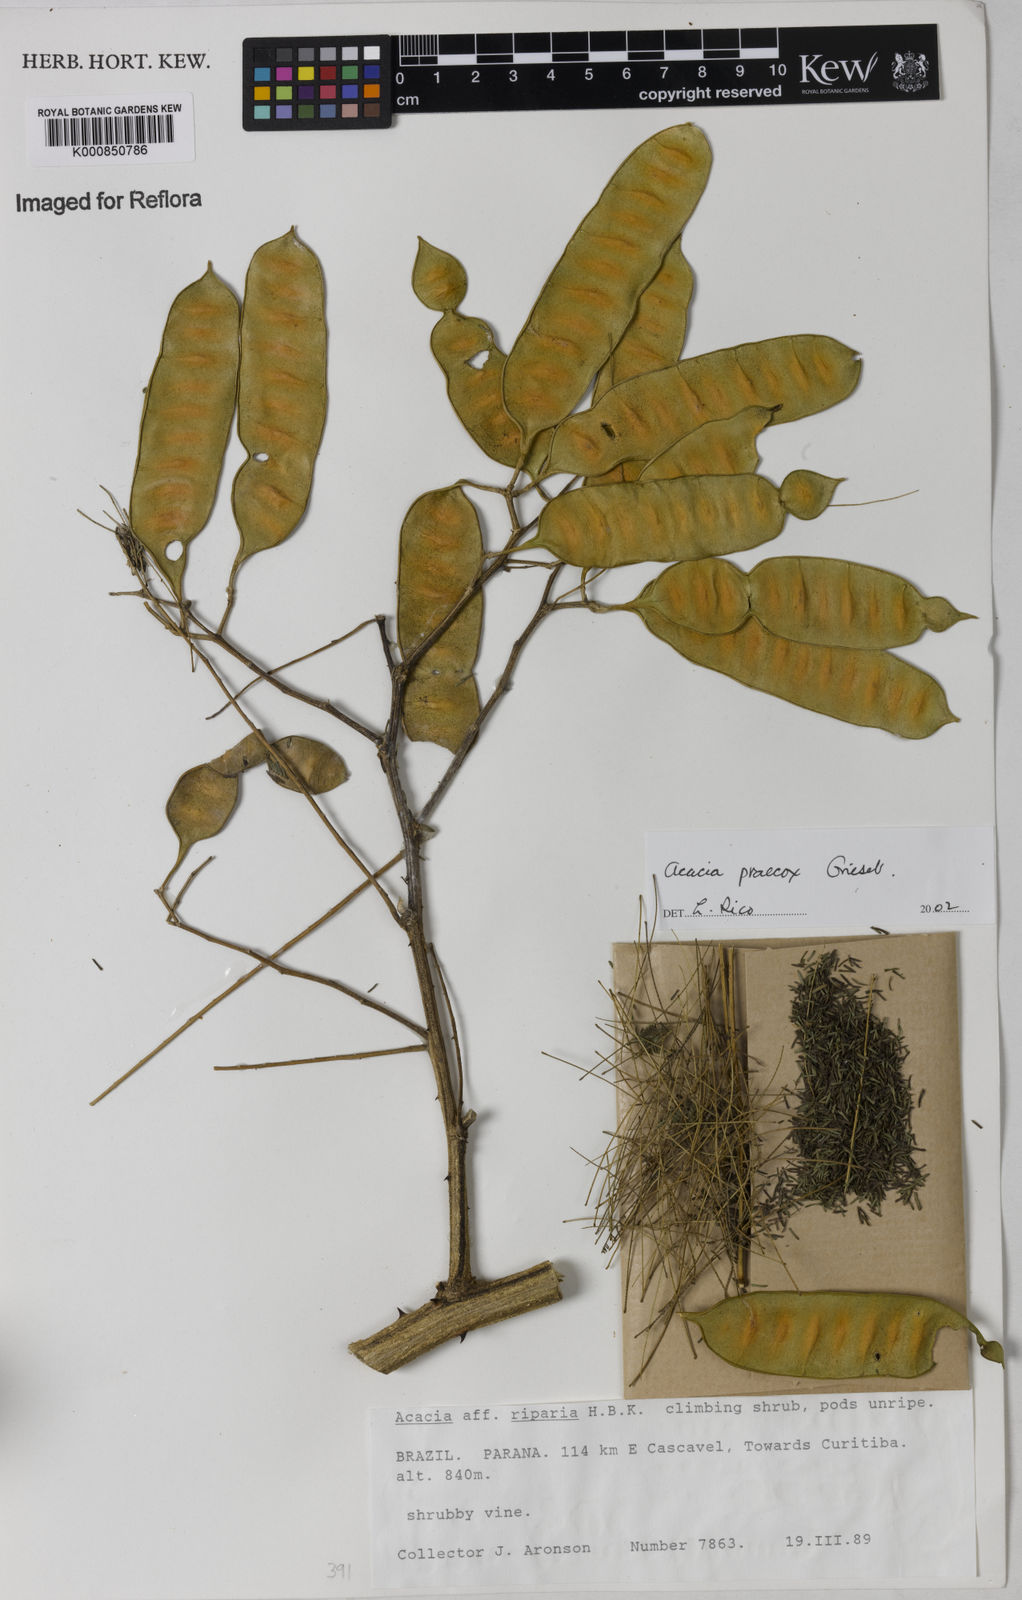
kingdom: Plantae
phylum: Tracheophyta
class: Magnoliopsida
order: Fabales
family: Fabaceae
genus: Senegalia
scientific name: Senegalia praecox
